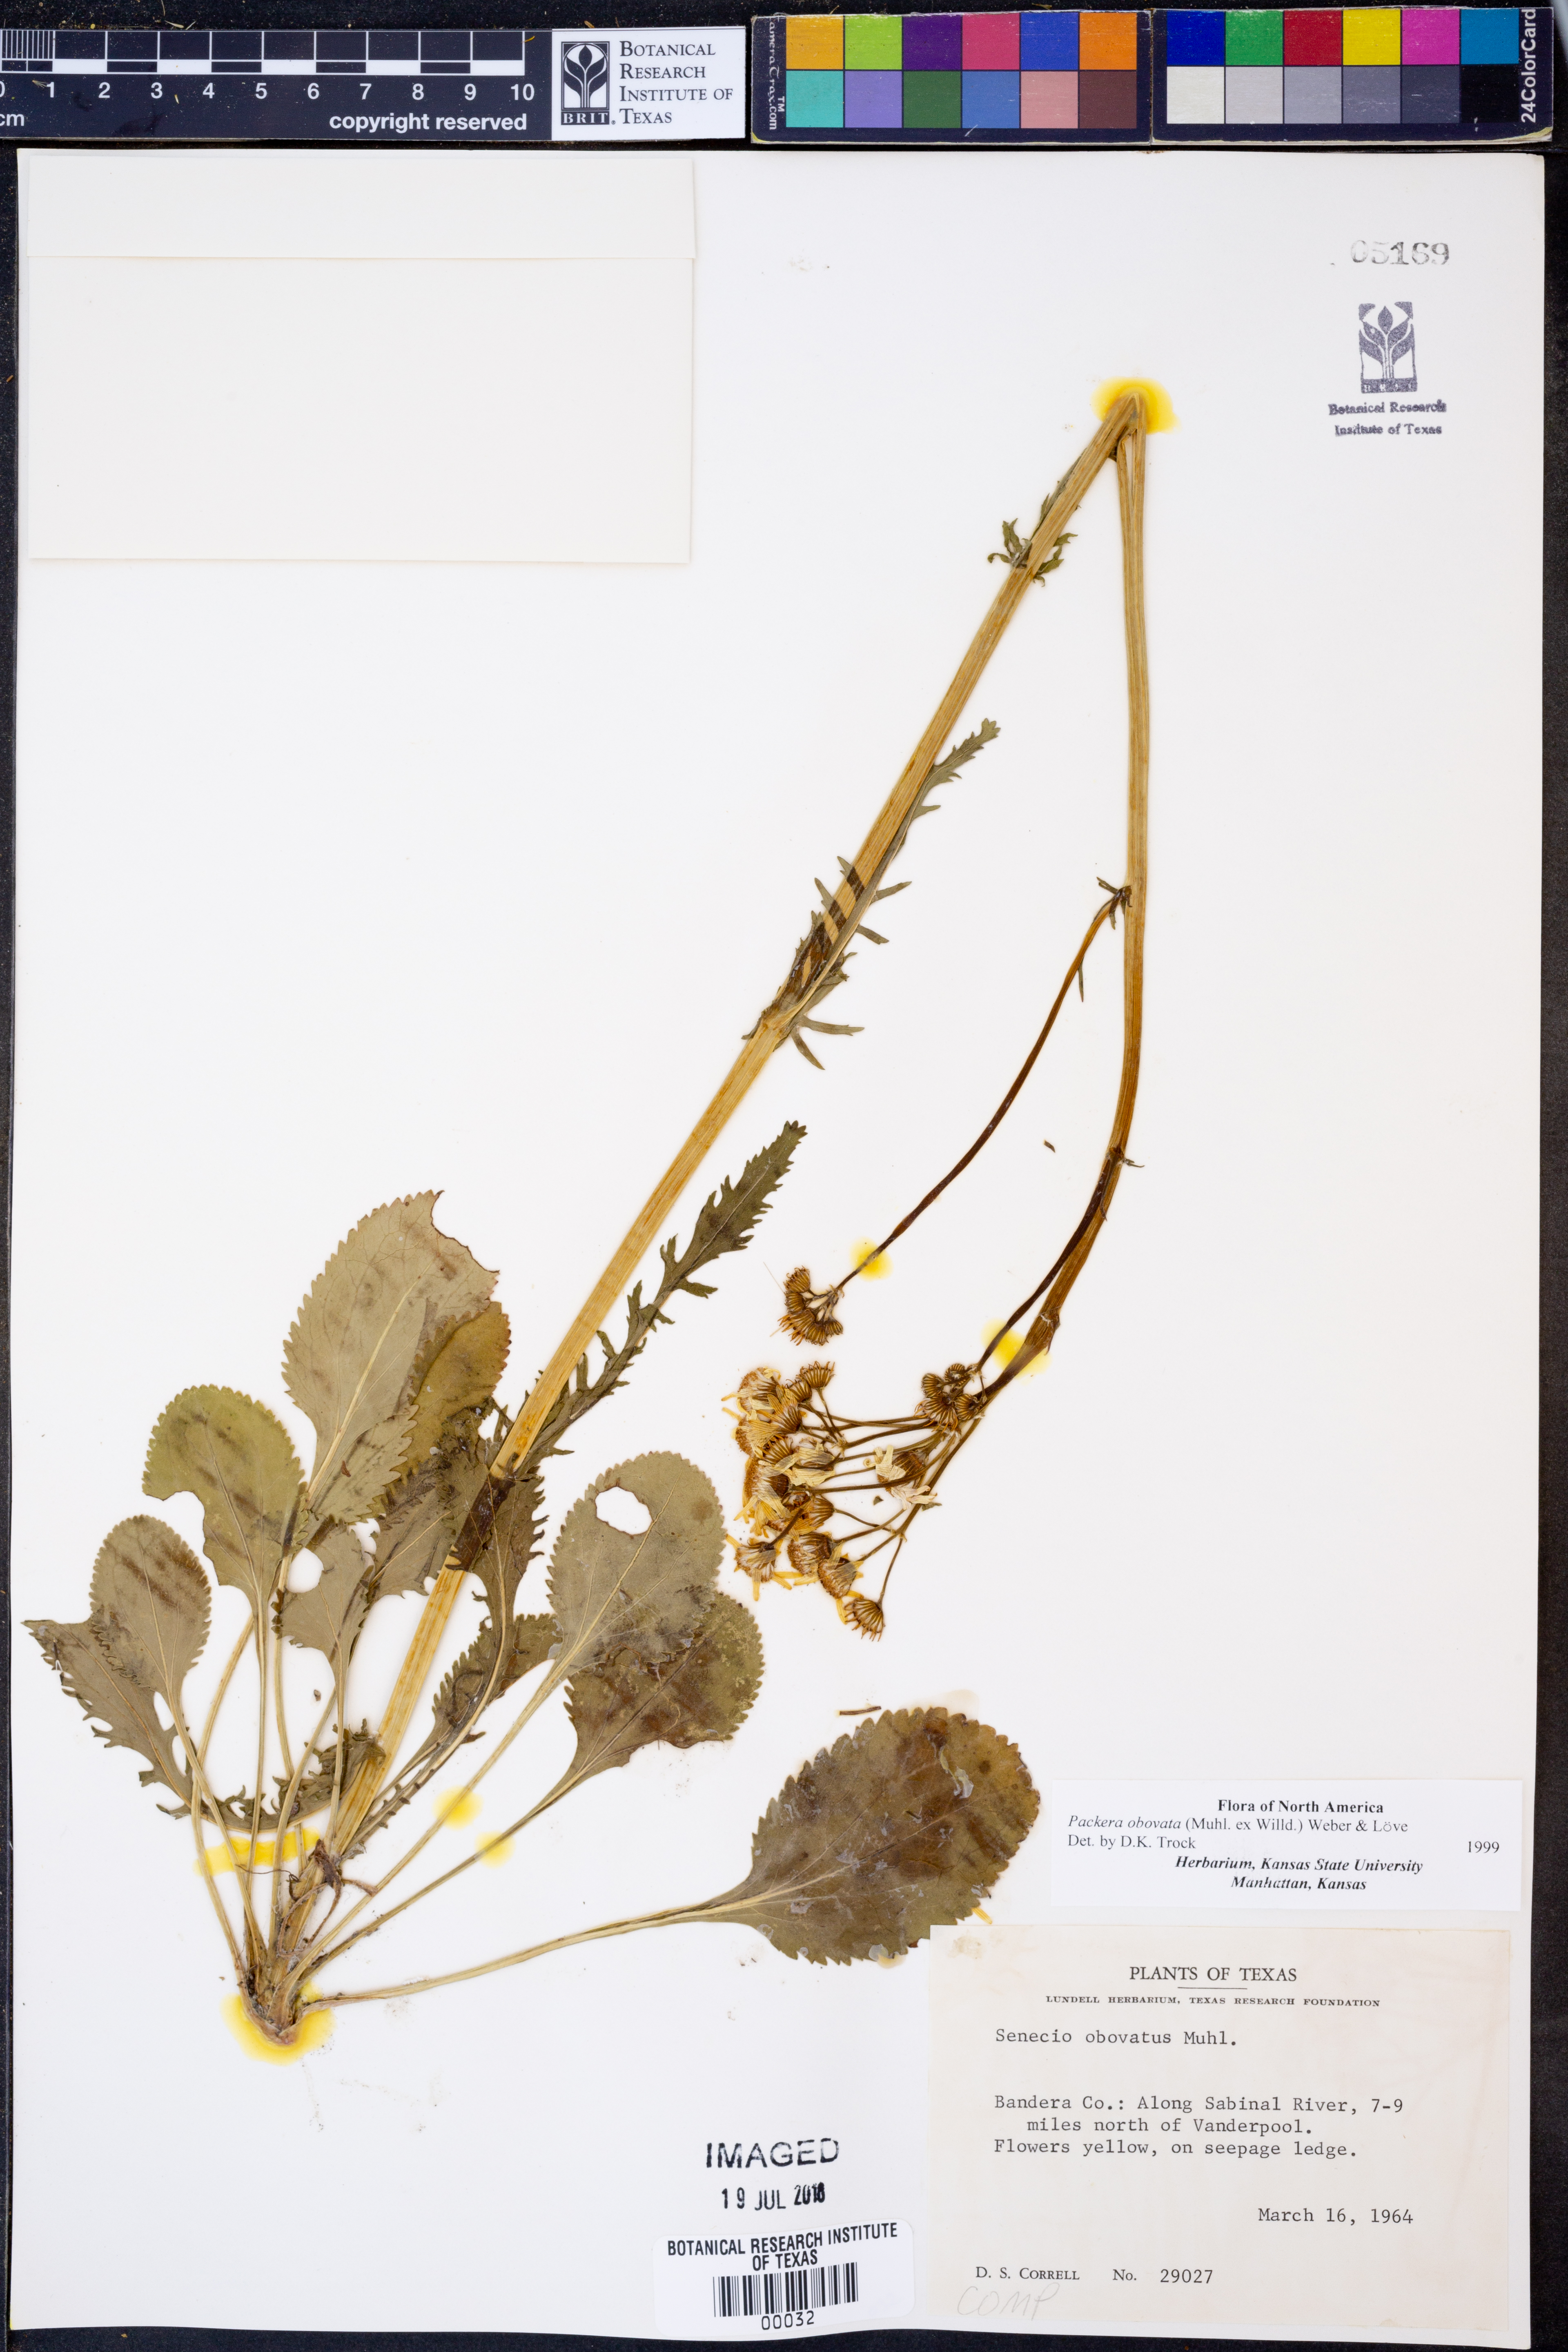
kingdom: Plantae
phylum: Tracheophyta
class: Magnoliopsida
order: Asterales
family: Asteraceae
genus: Packera
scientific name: Packera obovata
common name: Round-leaf ragwort
